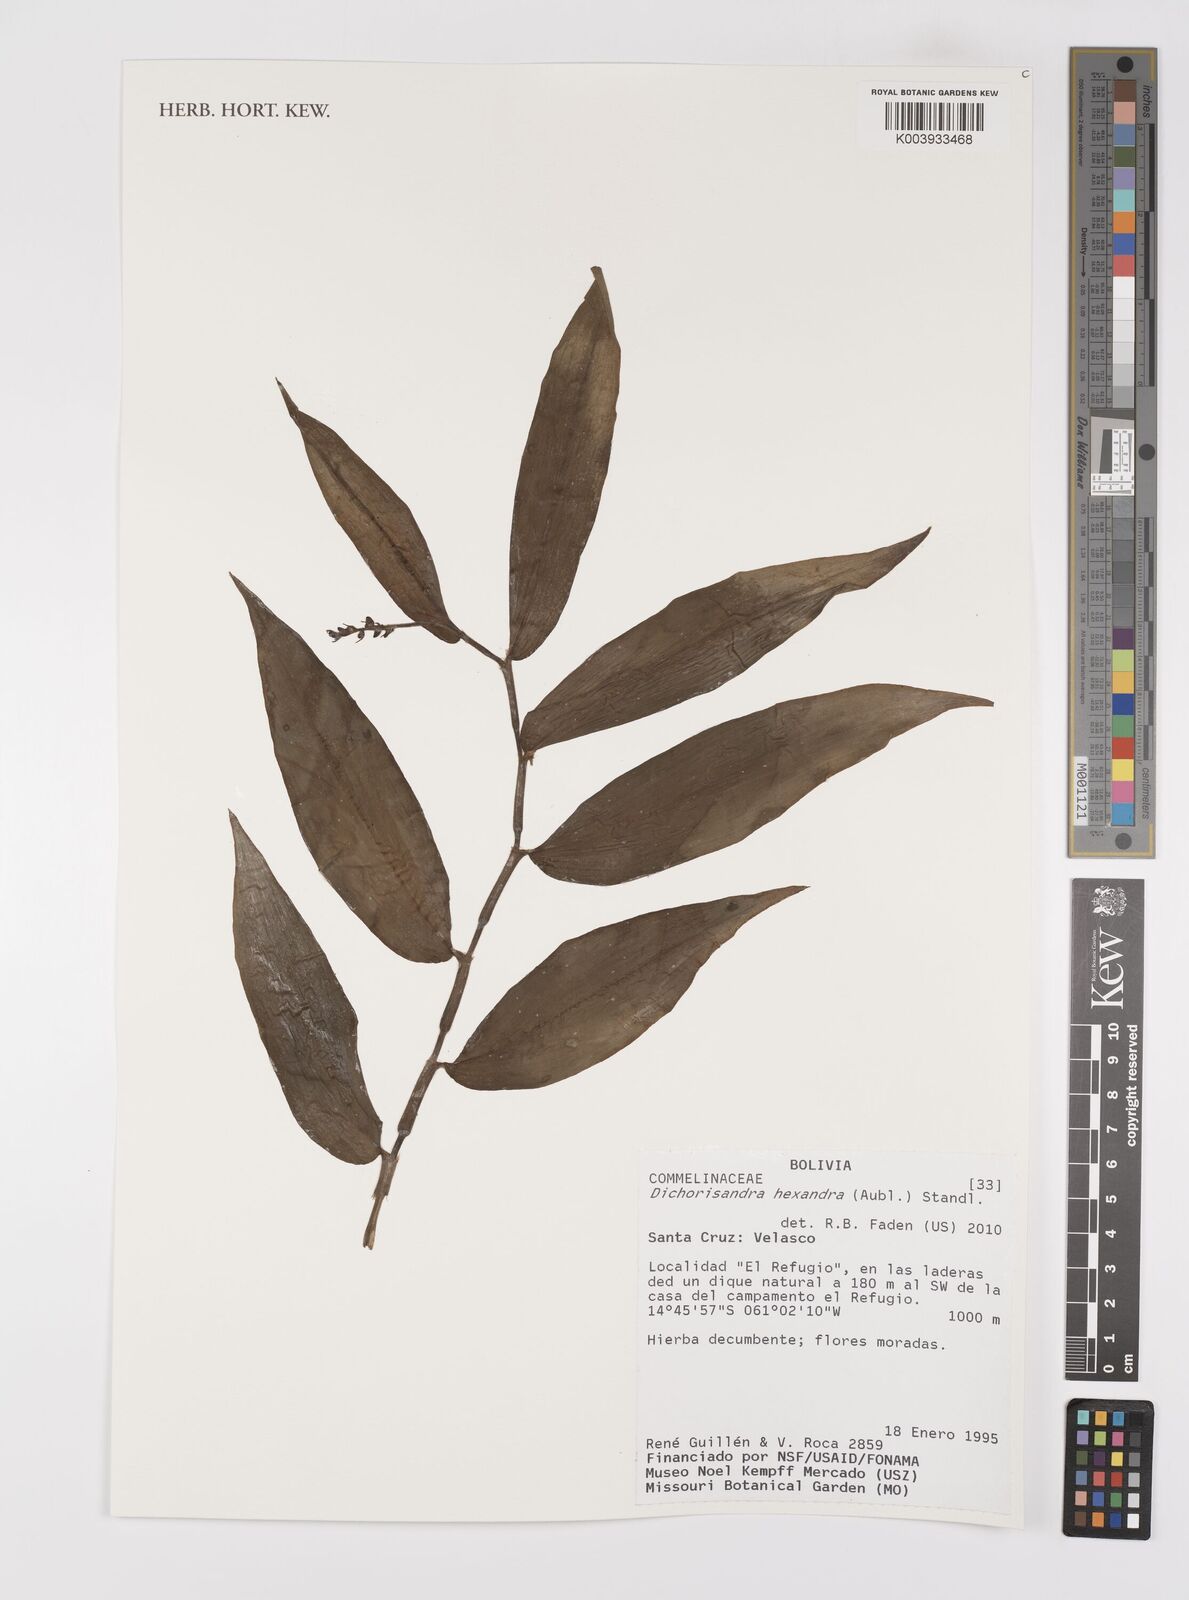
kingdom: Plantae
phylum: Tracheophyta
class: Liliopsida
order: Commelinales
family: Commelinaceae
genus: Dichorisandra
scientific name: Dichorisandra hexandra
